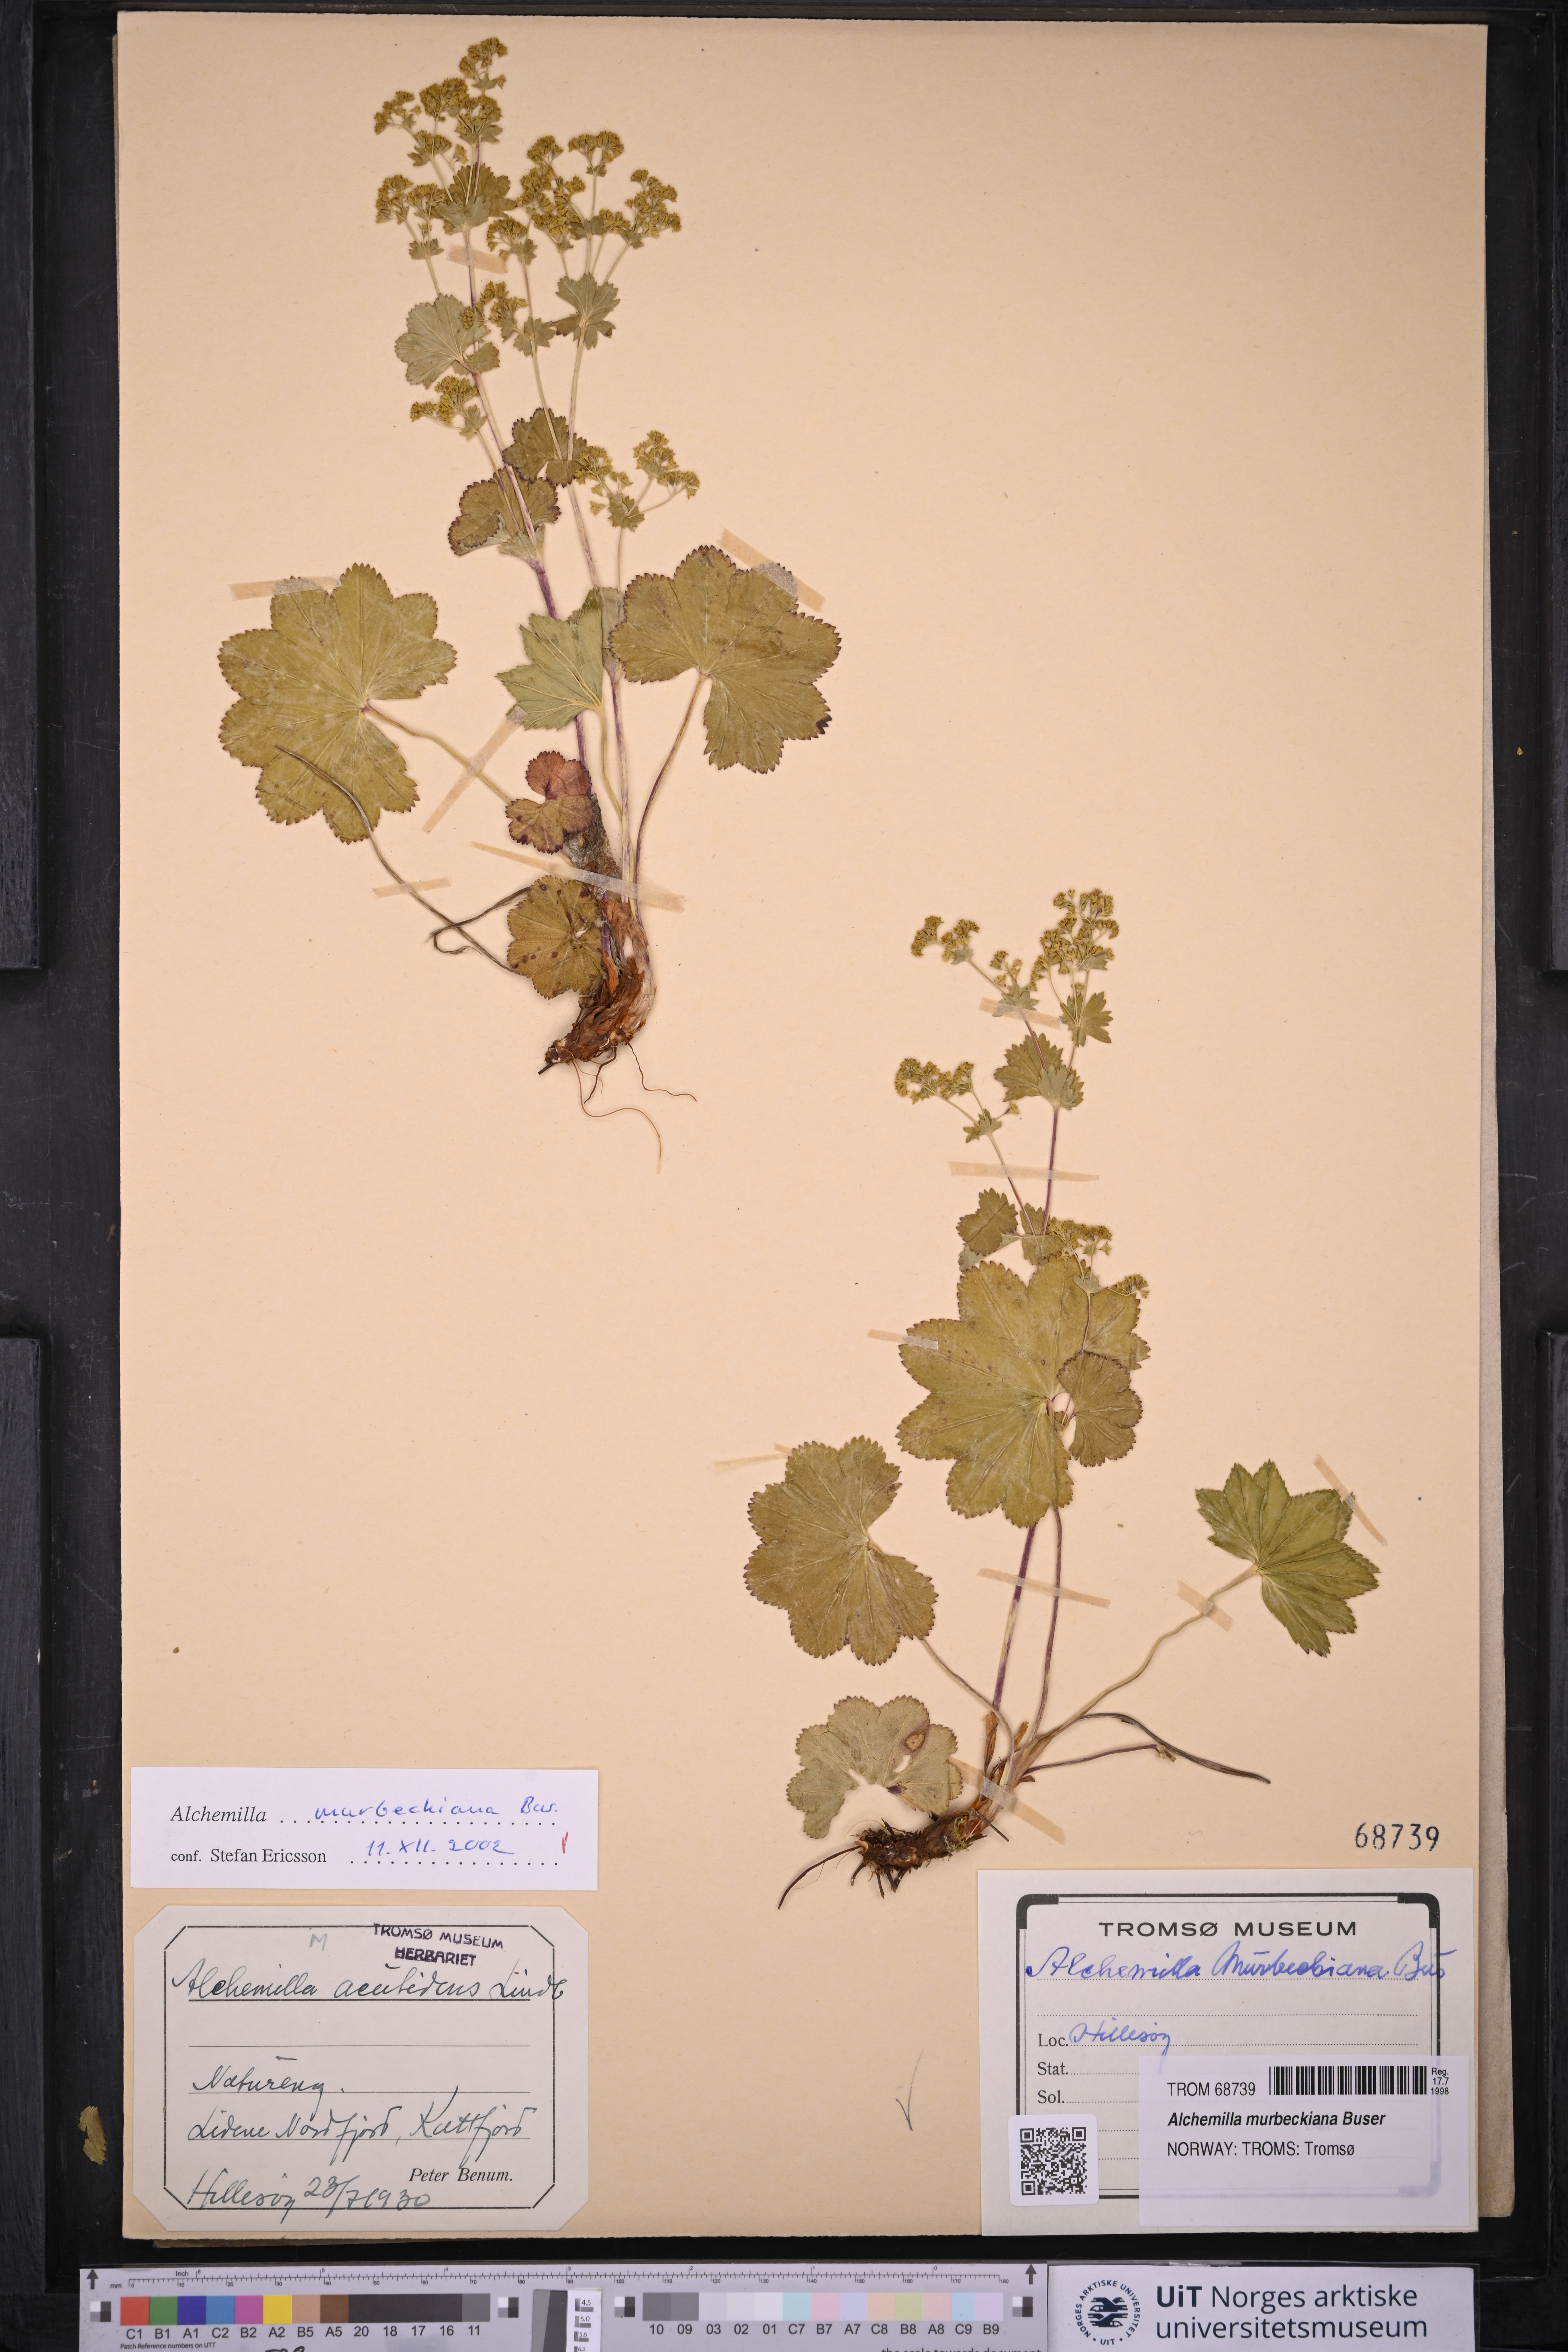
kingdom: Plantae
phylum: Tracheophyta
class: Magnoliopsida
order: Rosales
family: Rosaceae
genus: Alchemilla
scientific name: Alchemilla acutidens
